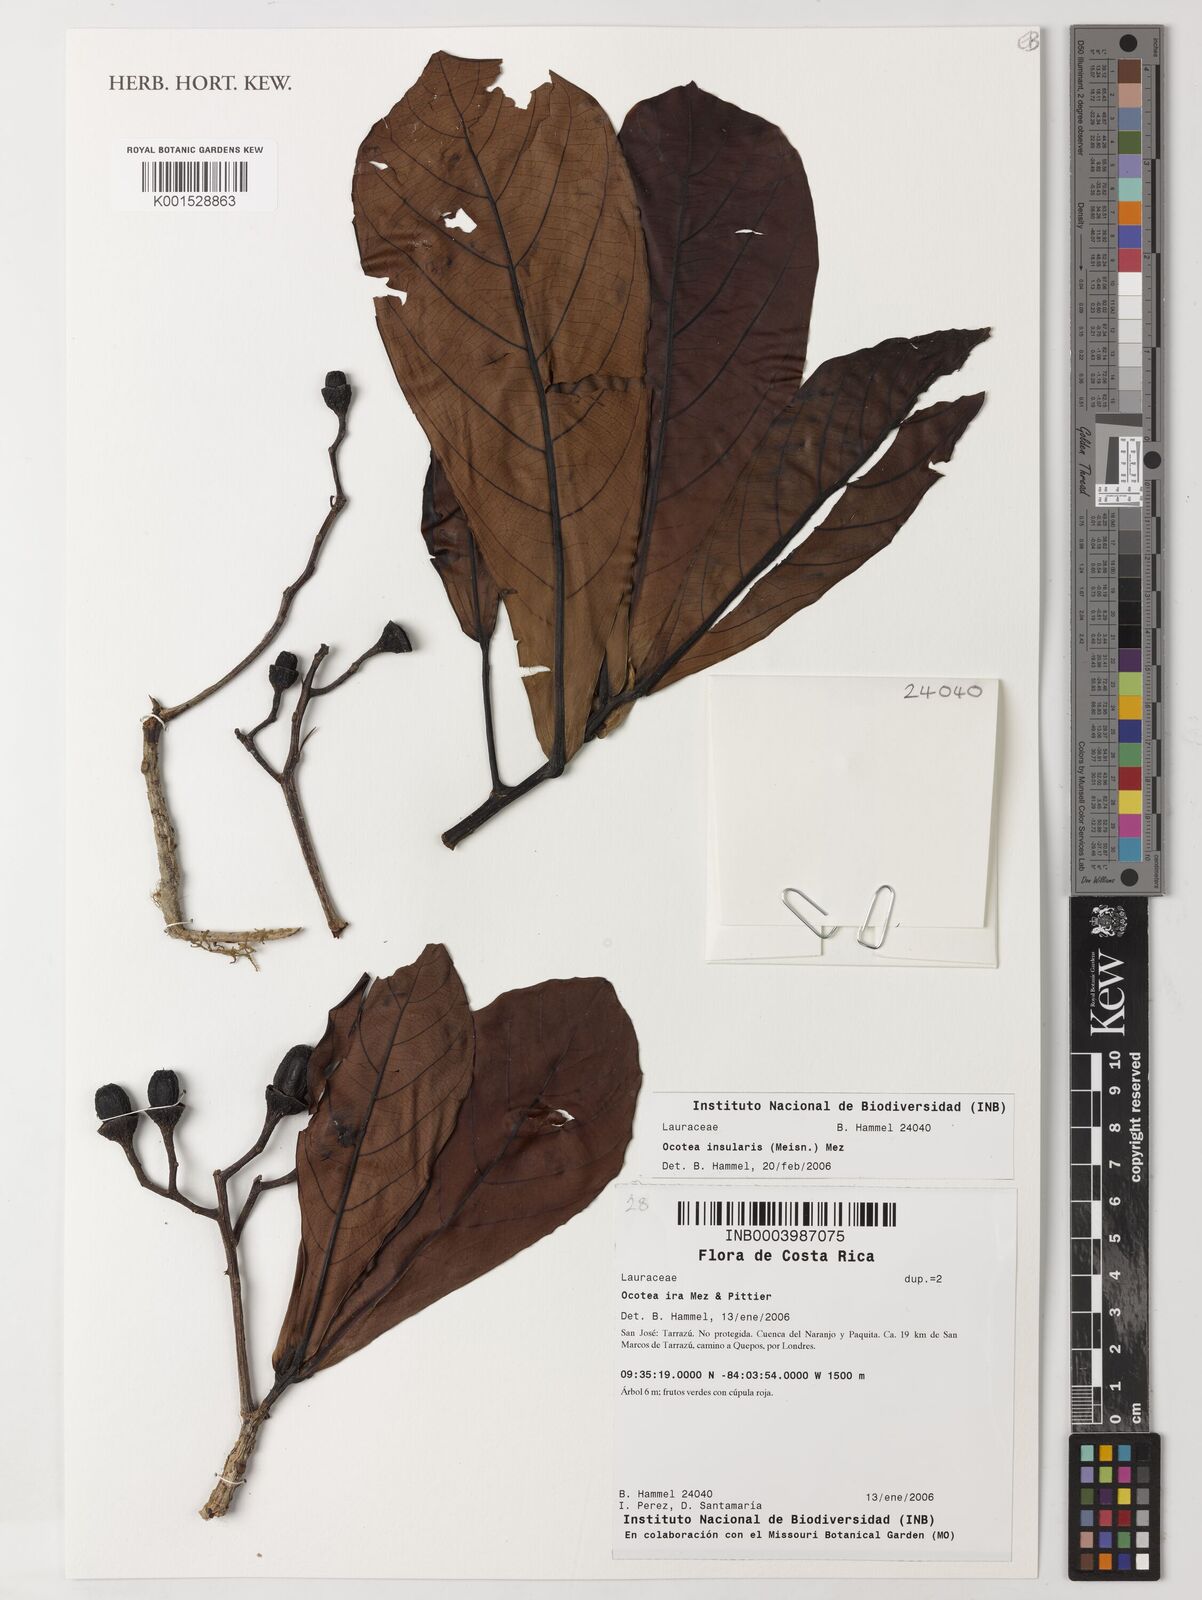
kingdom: Plantae
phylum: Tracheophyta
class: Magnoliopsida
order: Laurales
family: Lauraceae
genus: Ocotea
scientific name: Ocotea insularis
